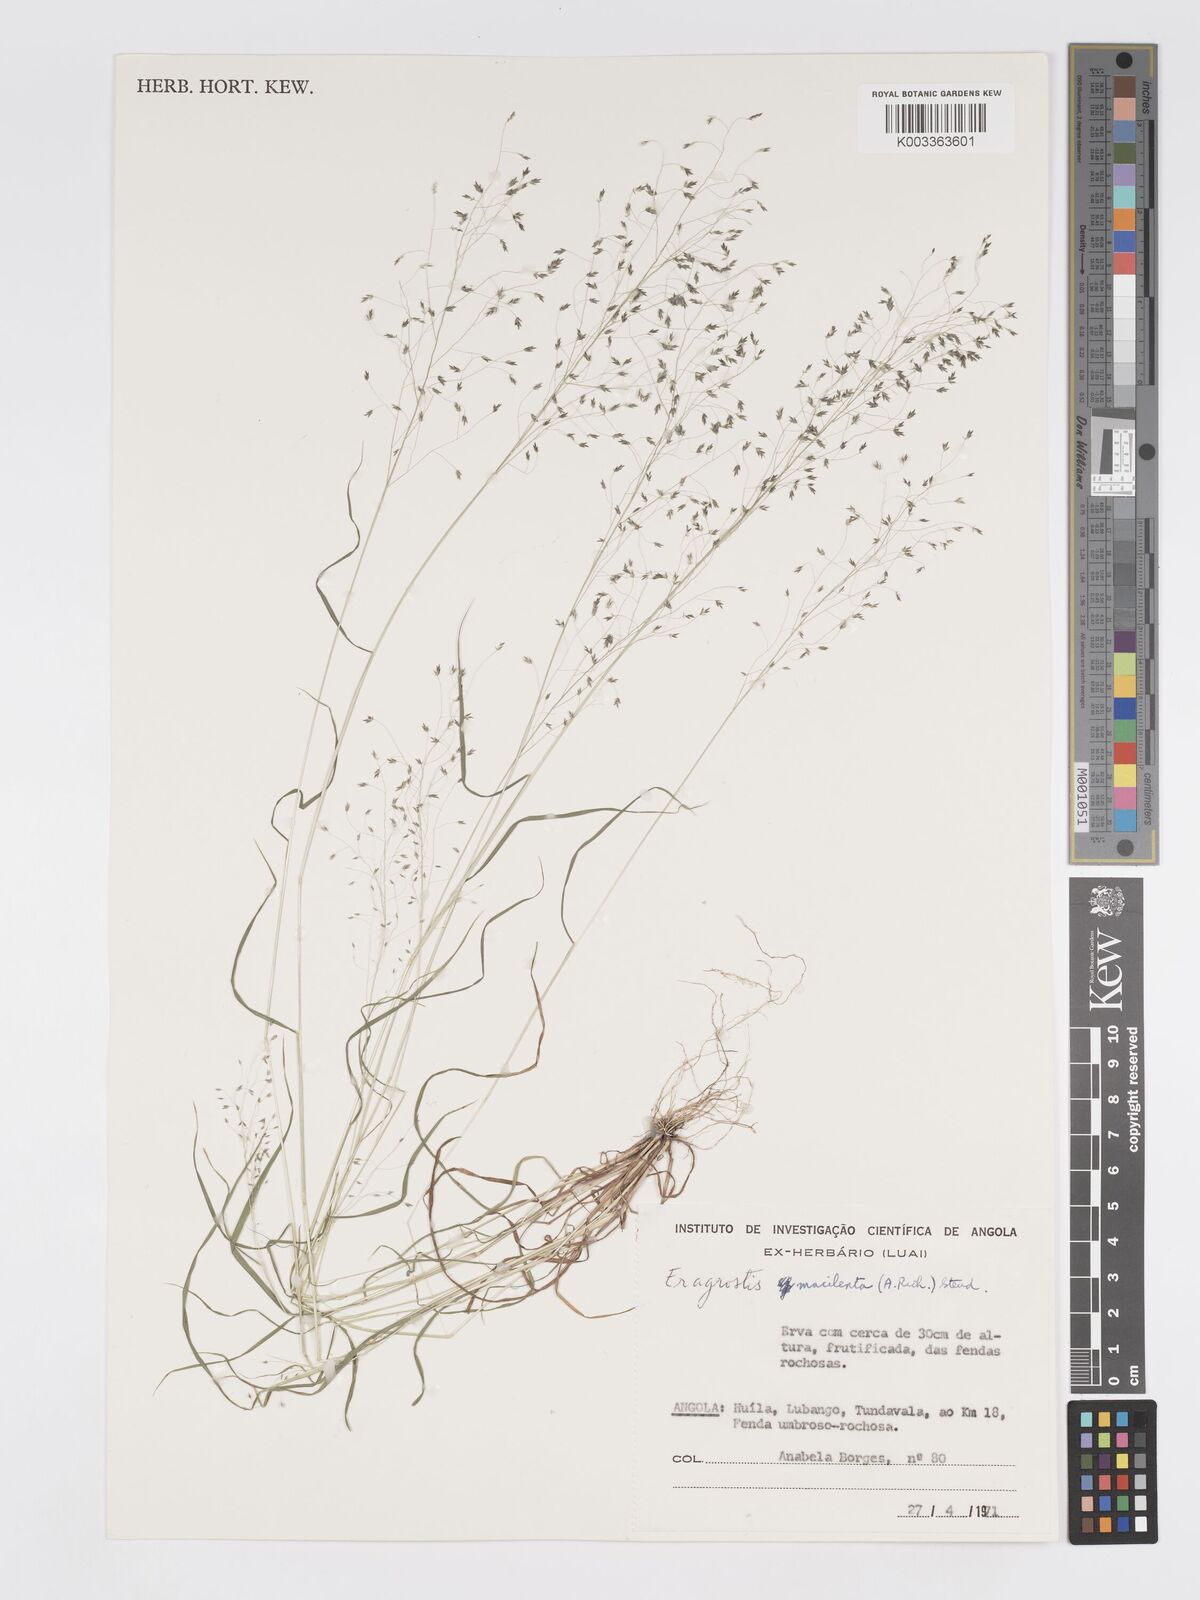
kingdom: Plantae
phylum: Tracheophyta
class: Liliopsida
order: Poales
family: Poaceae
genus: Eragrostis
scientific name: Eragrostis macilenta
